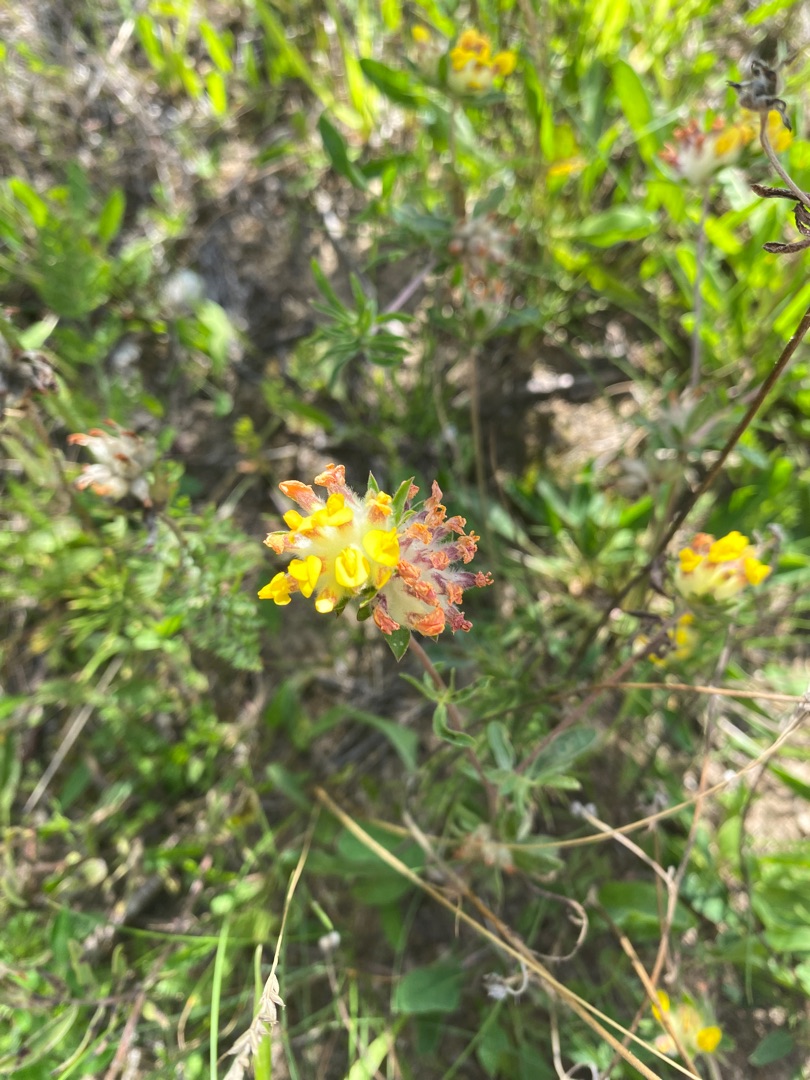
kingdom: Plantae
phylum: Tracheophyta
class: Magnoliopsida
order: Fabales
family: Fabaceae
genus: Anthyllis
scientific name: Anthyllis vulneraria
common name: Rundbælg
